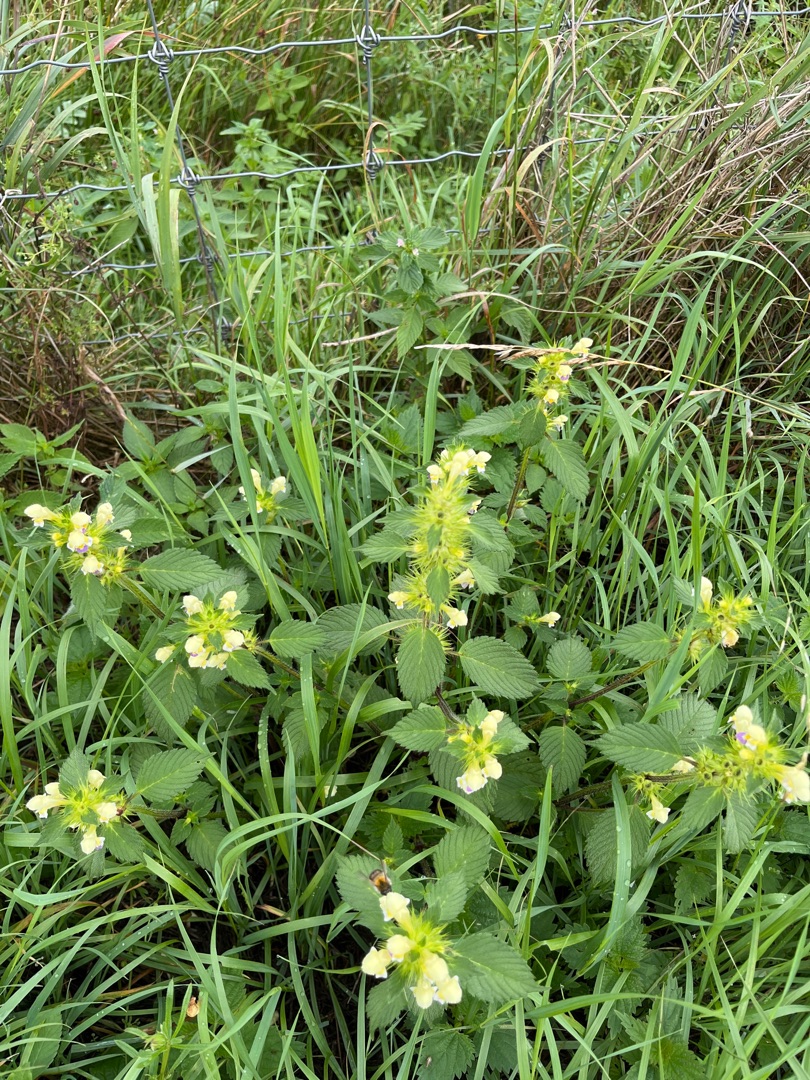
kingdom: Plantae
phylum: Tracheophyta
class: Magnoliopsida
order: Lamiales
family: Lamiaceae
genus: Galeopsis
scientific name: Galeopsis speciosa
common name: Hamp-hanekro
